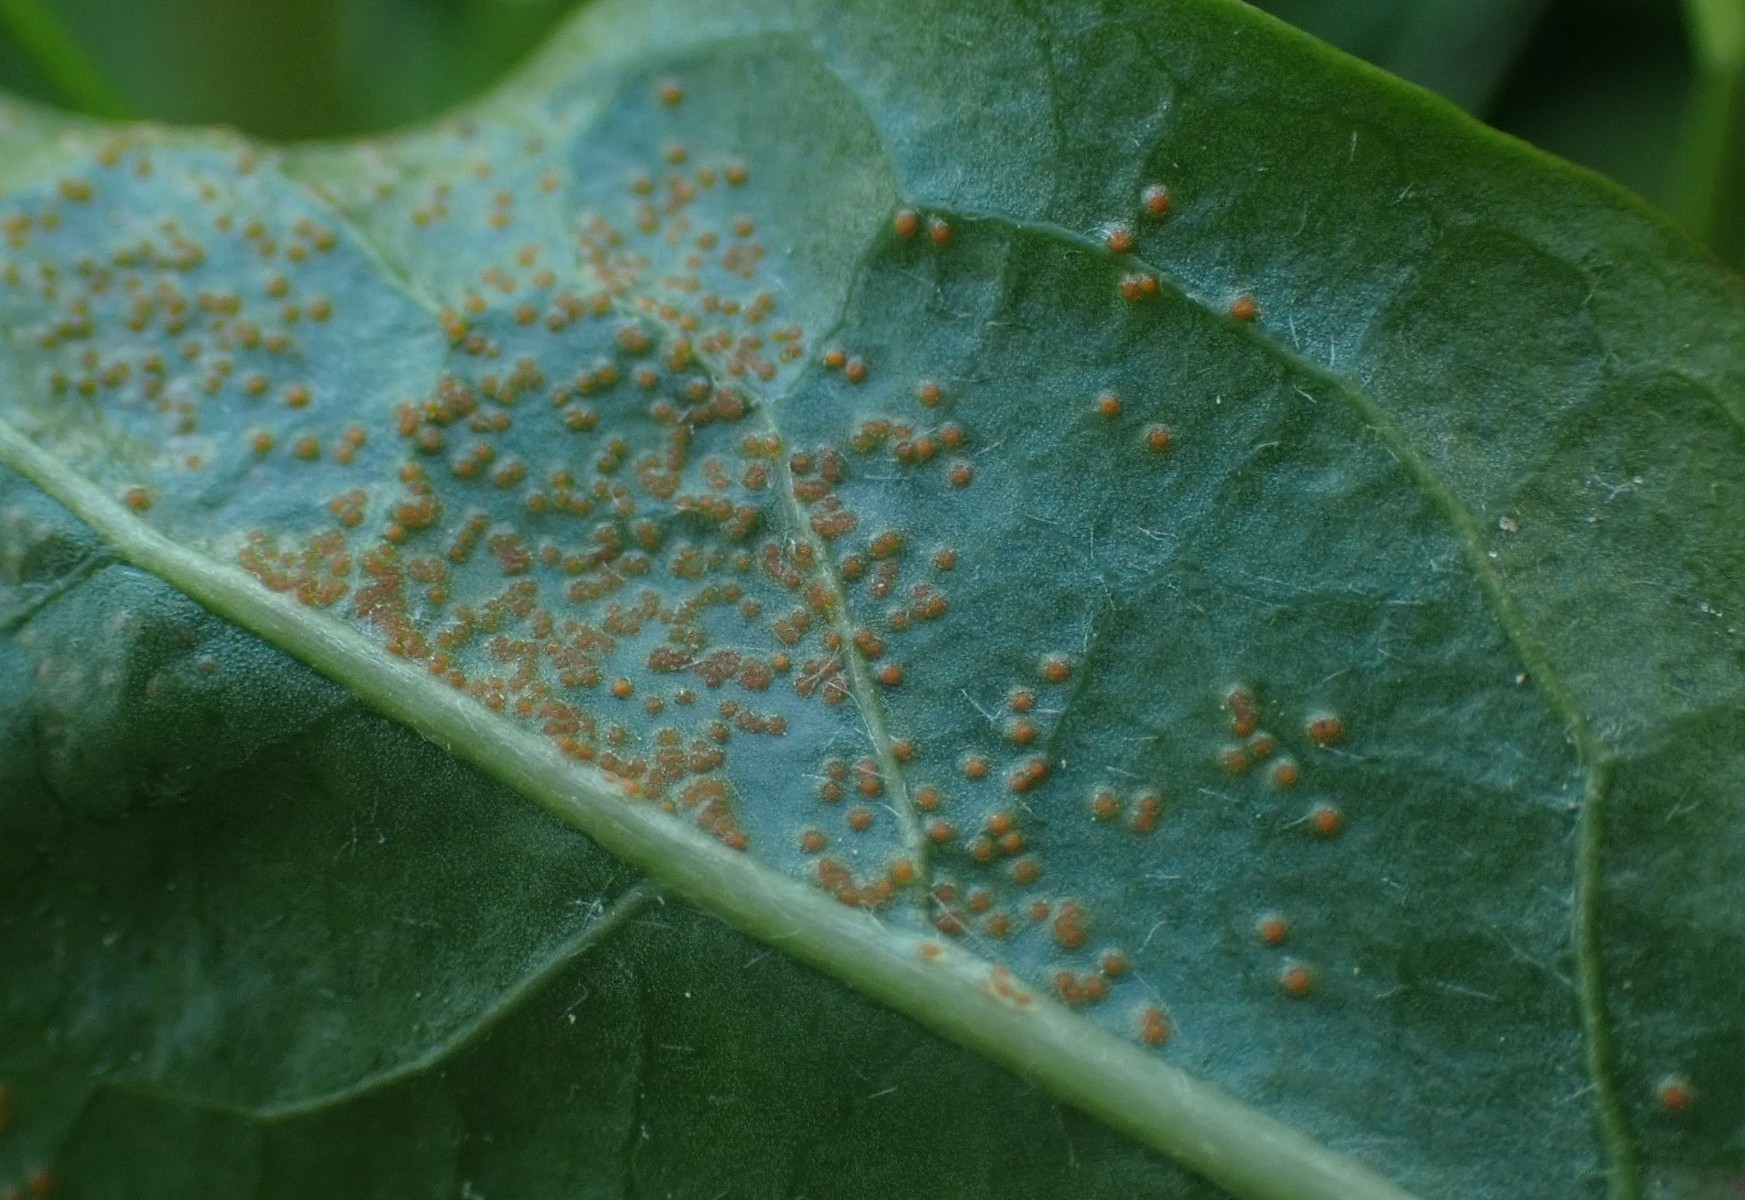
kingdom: Fungi
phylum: Chytridiomycota
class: Chytridiomycetes
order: Chytridiales
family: Synchytriaceae
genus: Synchytrium
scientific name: Synchytrium taraxaci
